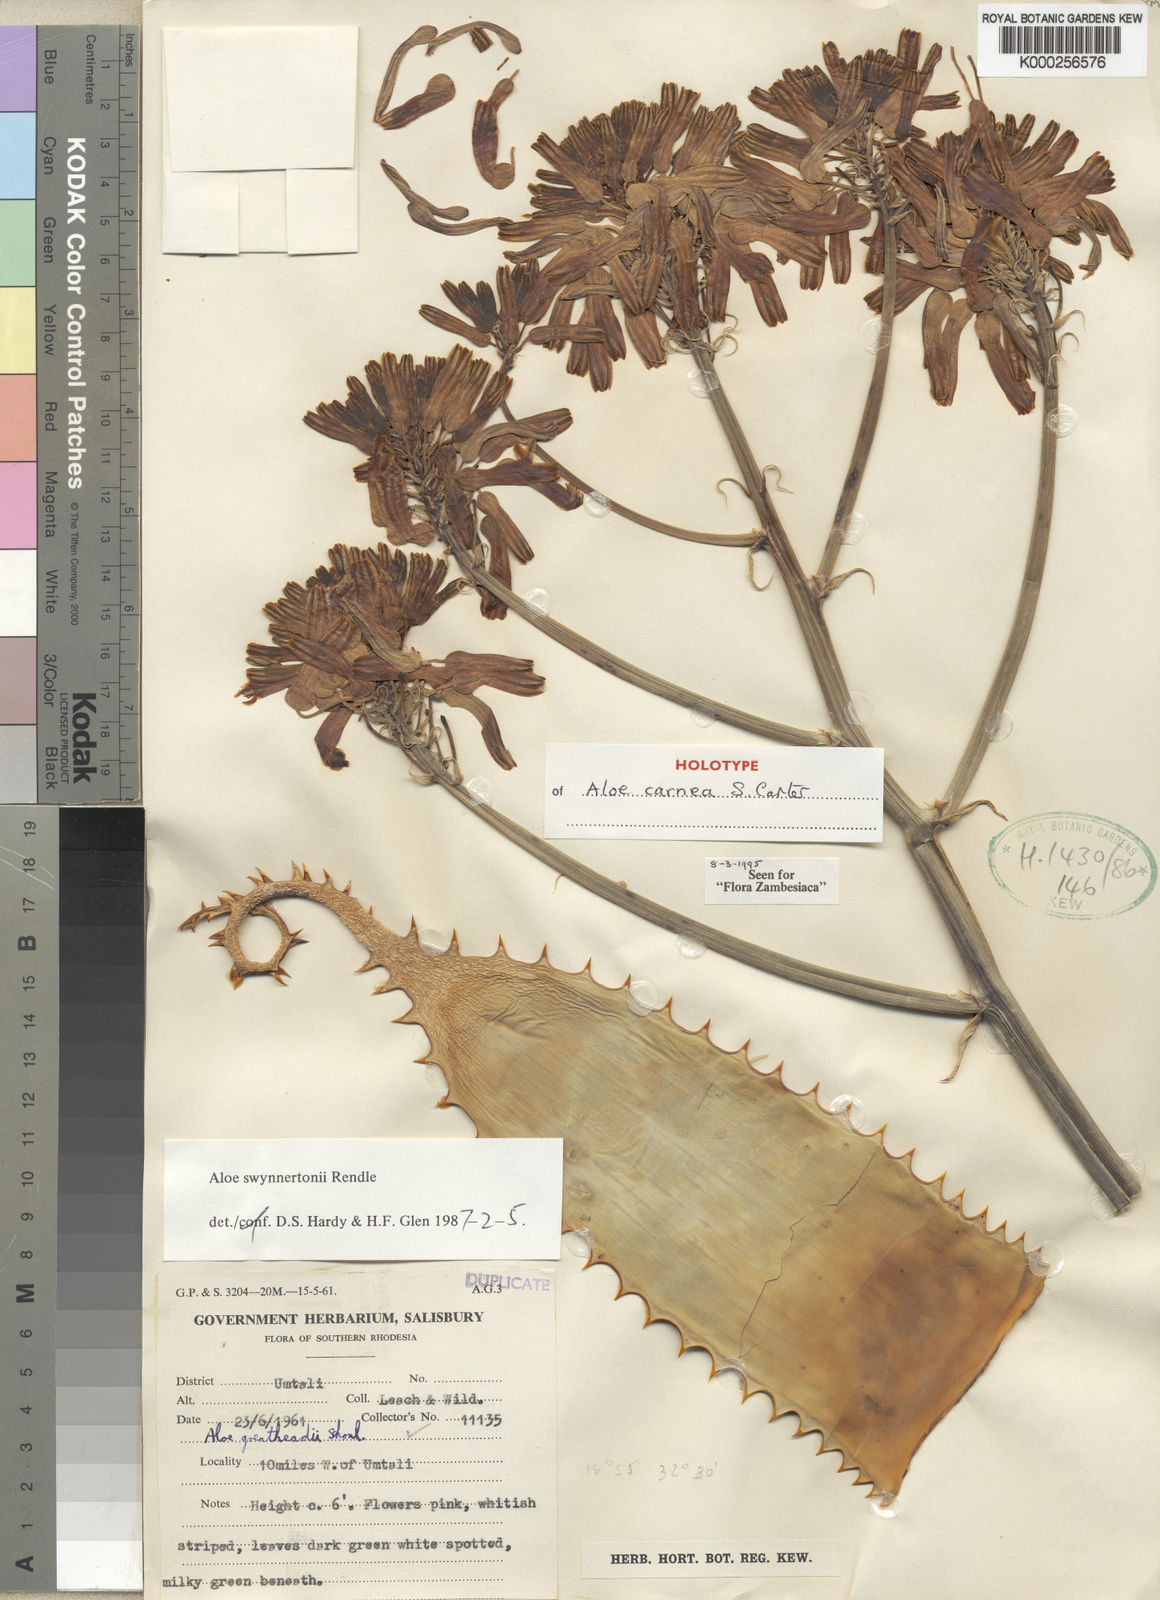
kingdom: Plantae
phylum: Tracheophyta
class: Liliopsida
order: Asparagales
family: Asphodelaceae
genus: Aloe
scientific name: Aloe carnea
